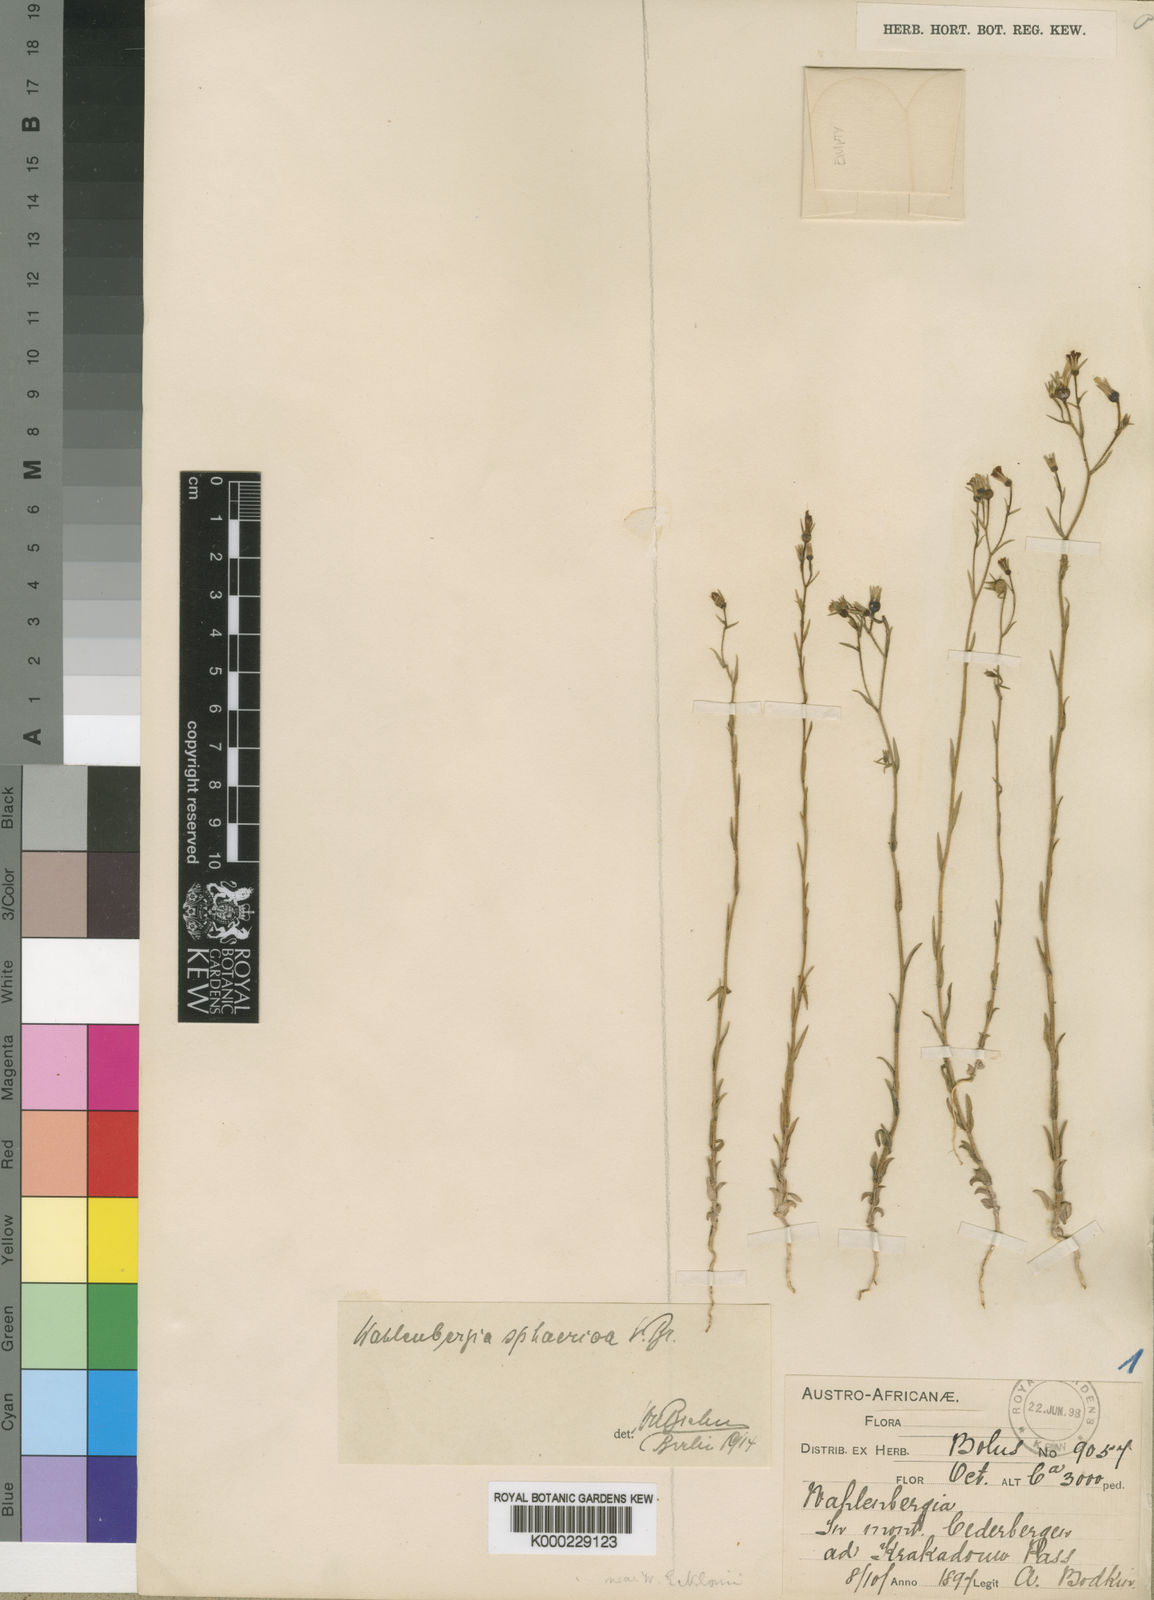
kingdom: Plantae
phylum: Tracheophyta
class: Magnoliopsida
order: Asterales
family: Campanulaceae
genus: Wahlenbergia
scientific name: Wahlenbergia sphaerica
